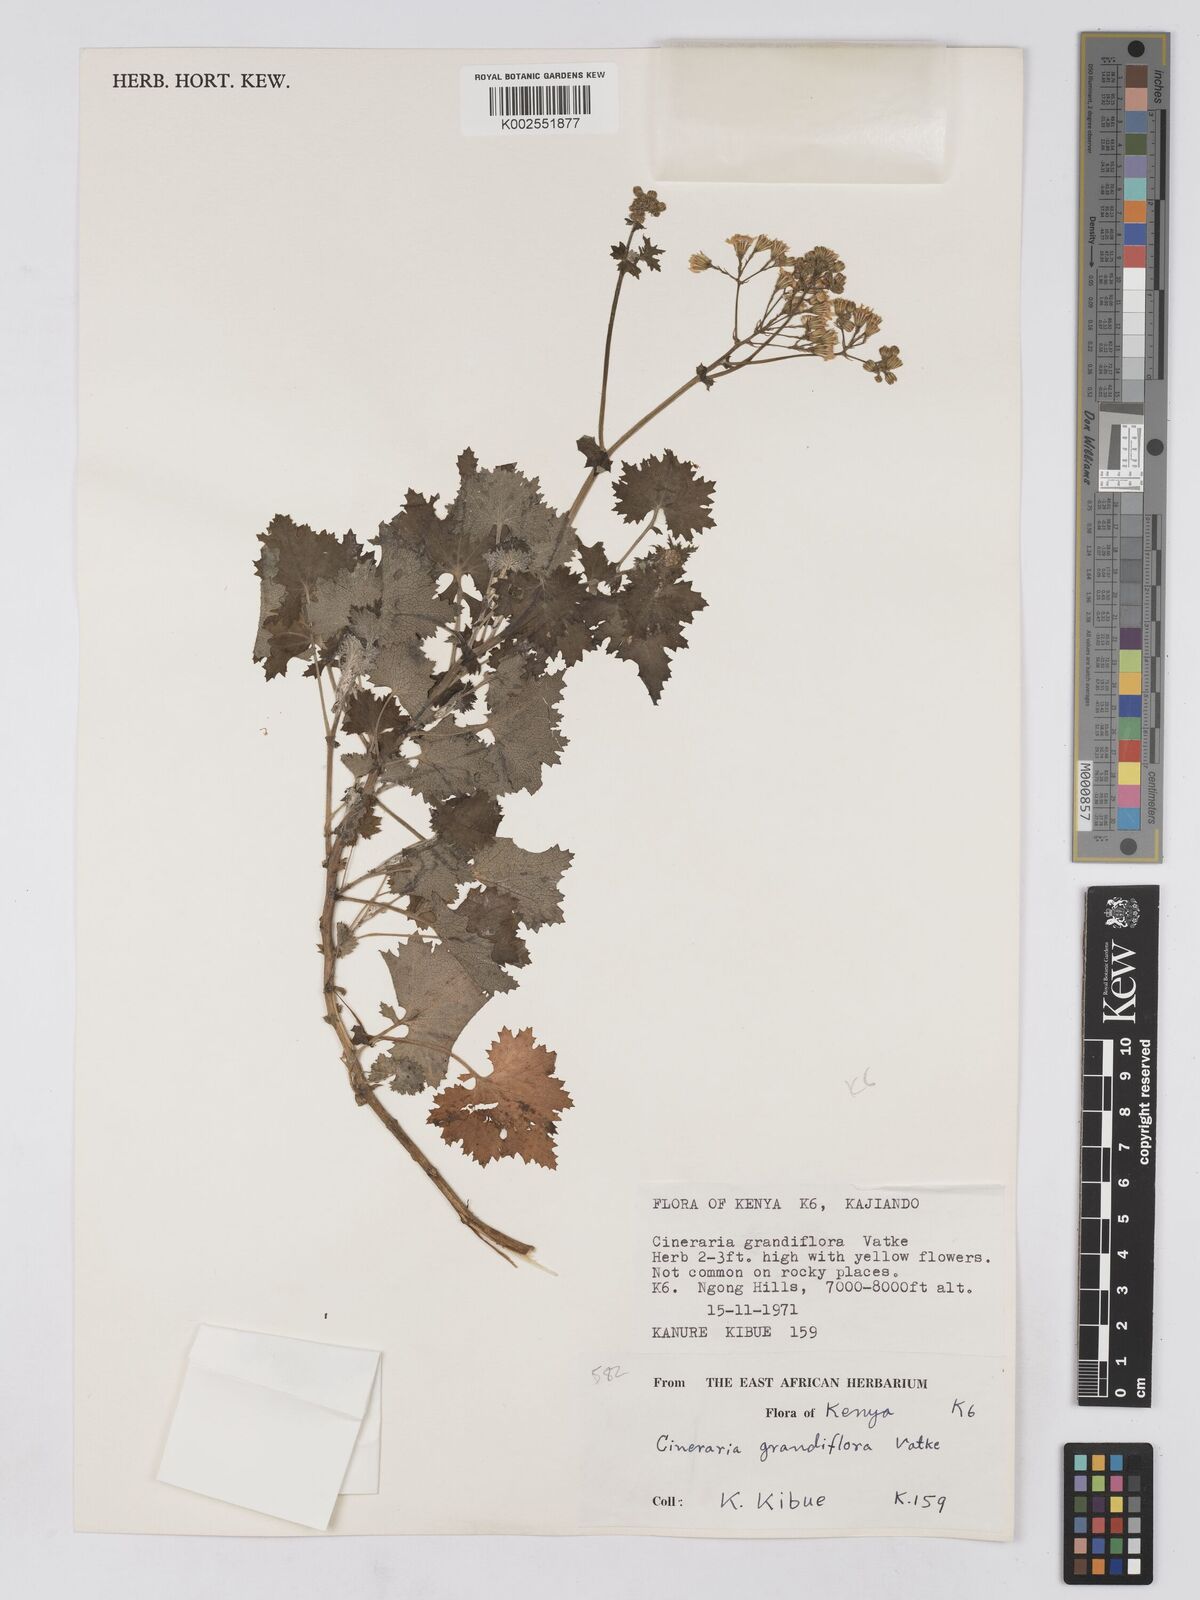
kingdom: Plantae
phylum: Tracheophyta
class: Magnoliopsida
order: Asterales
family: Asteraceae
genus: Cineraria
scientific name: Cineraria deltoidea
